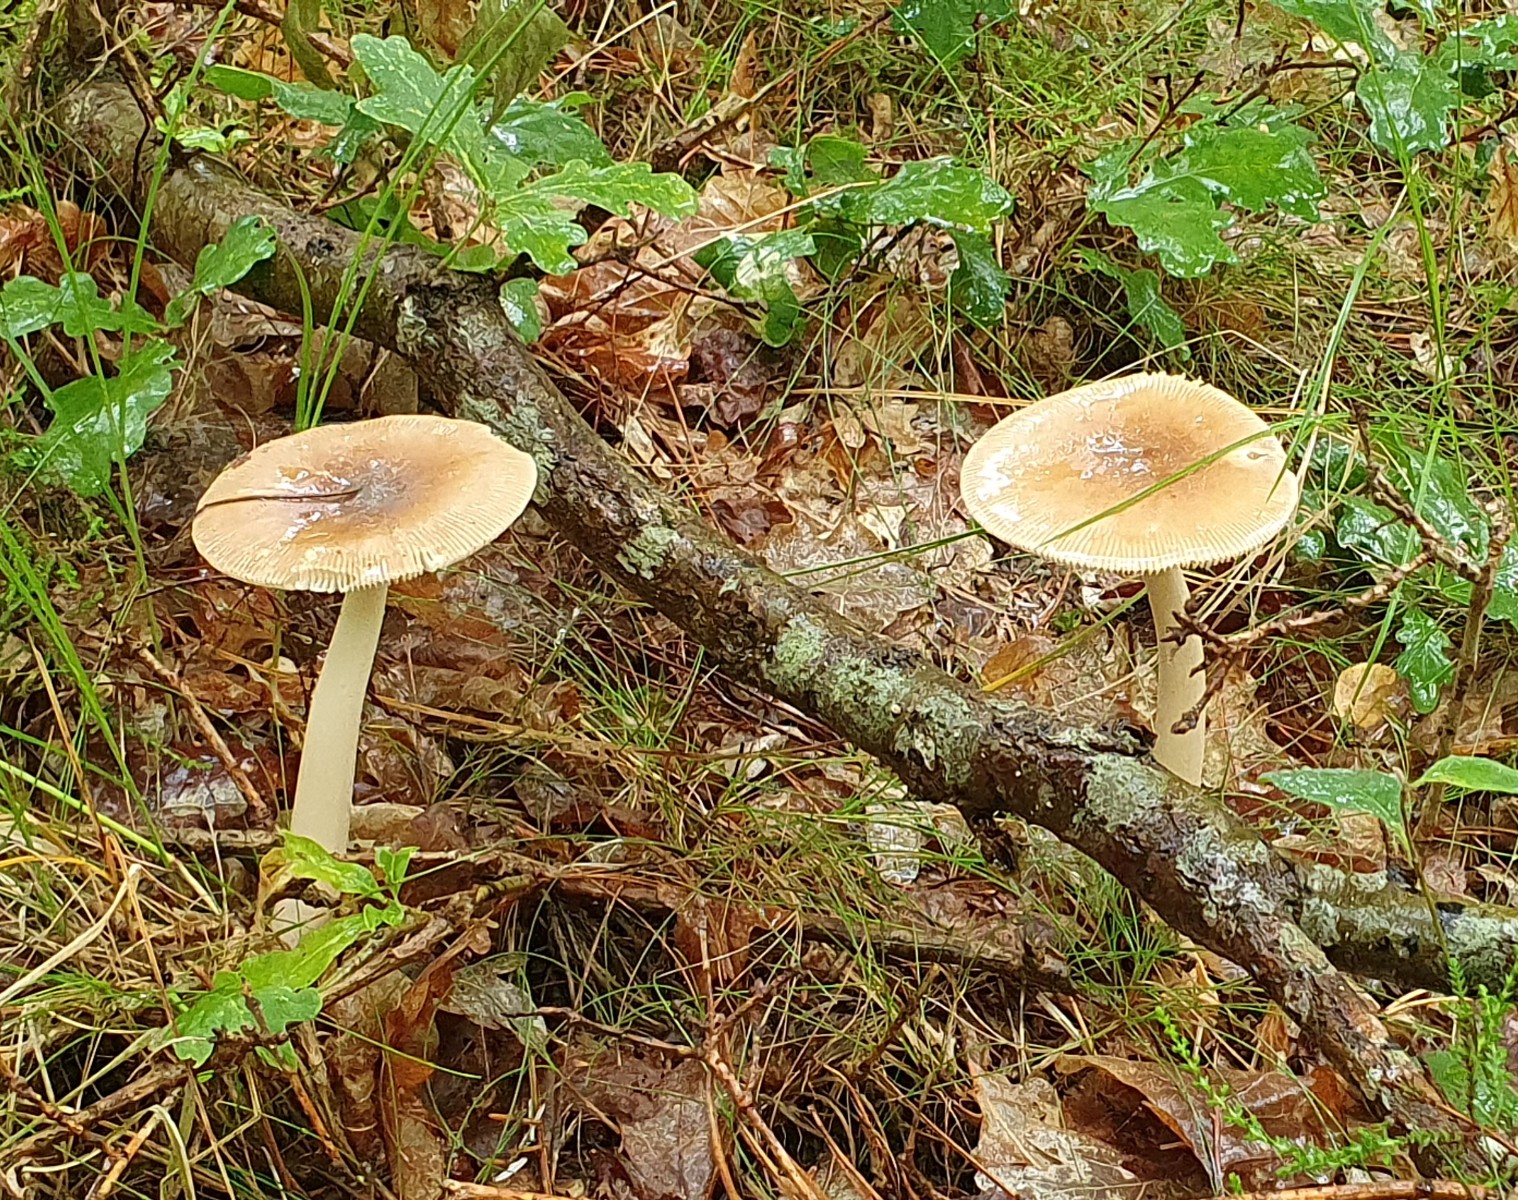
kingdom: Fungi
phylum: Basidiomycota
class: Agaricomycetes
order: Agaricales
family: Amanitaceae
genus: Amanita
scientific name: Amanita fulva
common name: brun kam-fluesvamp
